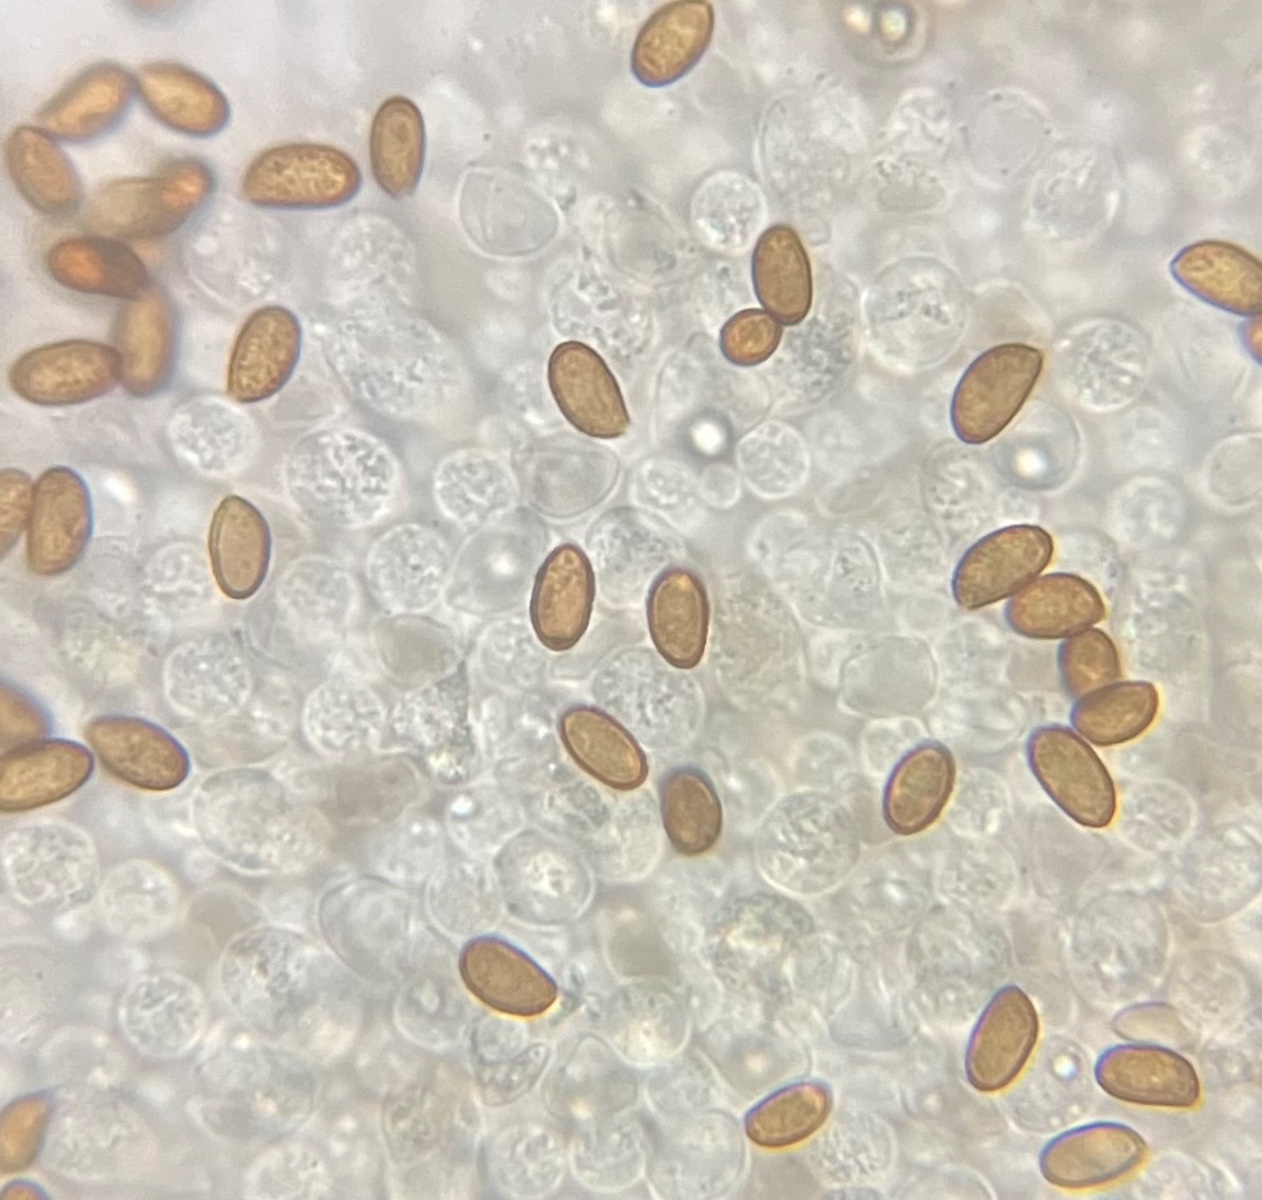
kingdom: Fungi
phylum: Basidiomycota
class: Agaricomycetes
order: Agaricales
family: Cortinariaceae
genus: Cortinarius
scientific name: Cortinarius saturninus
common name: brunviolet slørhat
